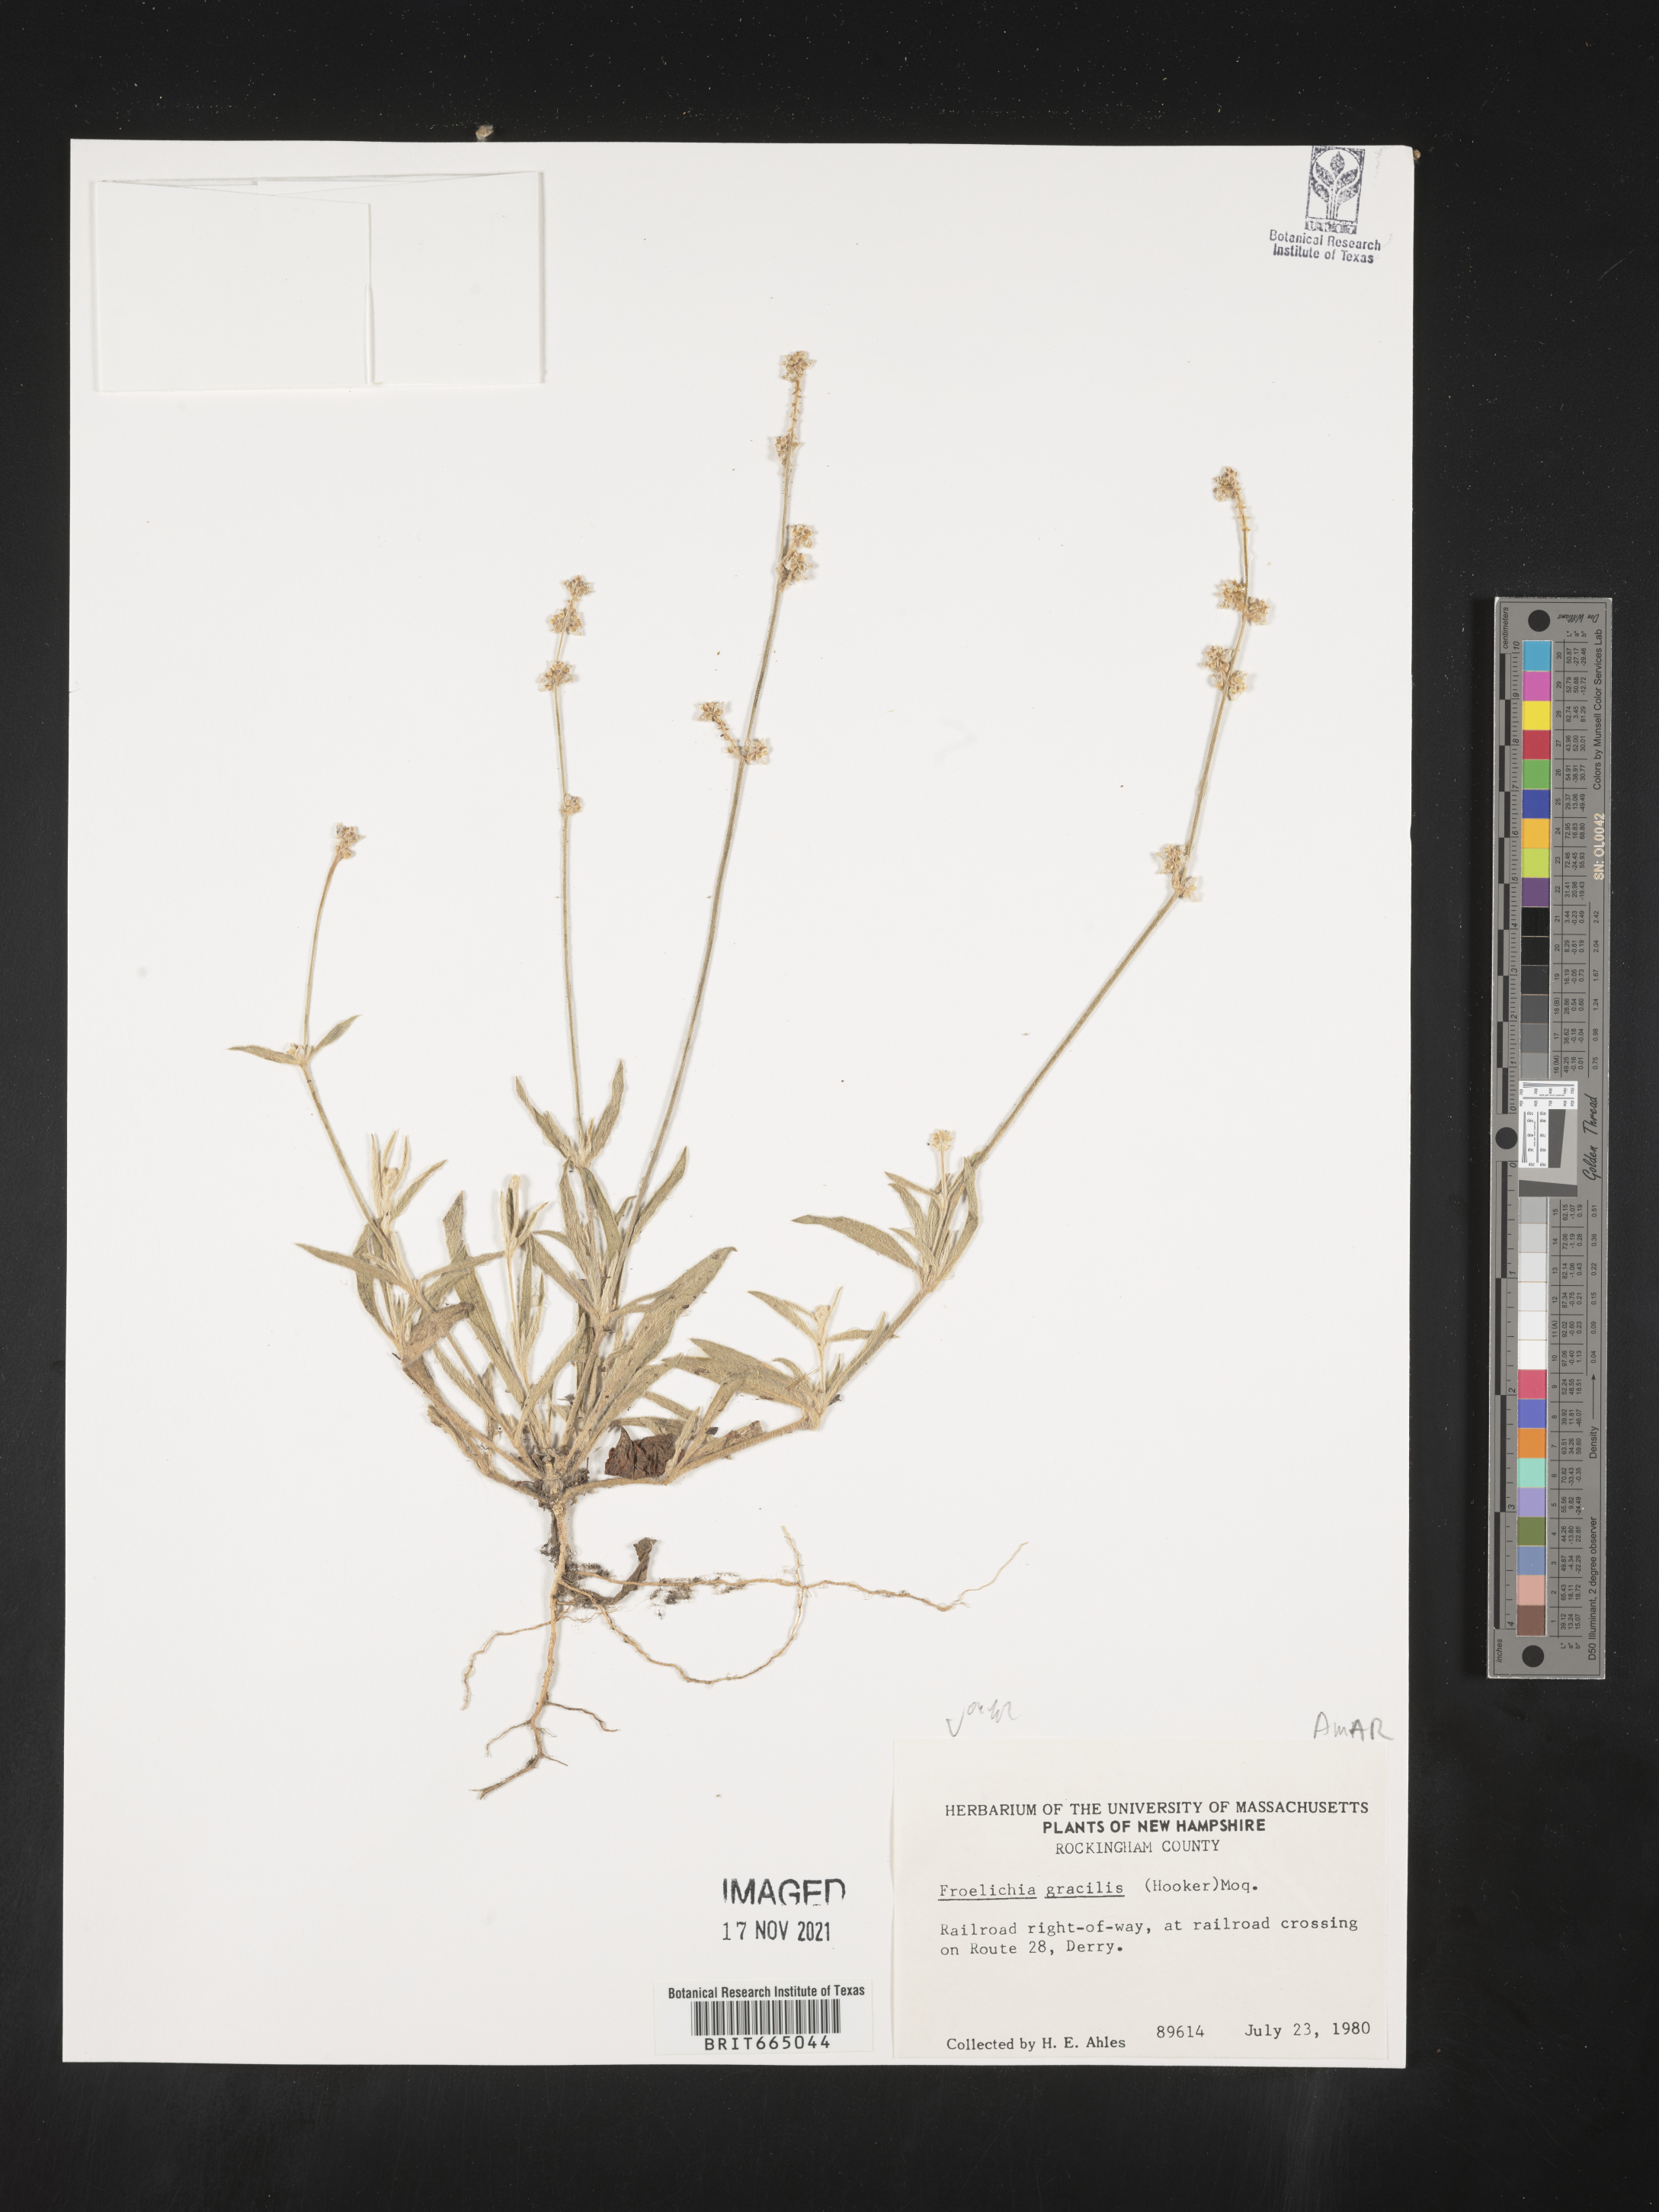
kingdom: Plantae
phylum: Tracheophyta
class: Magnoliopsida
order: Caryophyllales
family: Amaranthaceae
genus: Froelichia
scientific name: Froelichia gracilis
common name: Slender cottonweed
